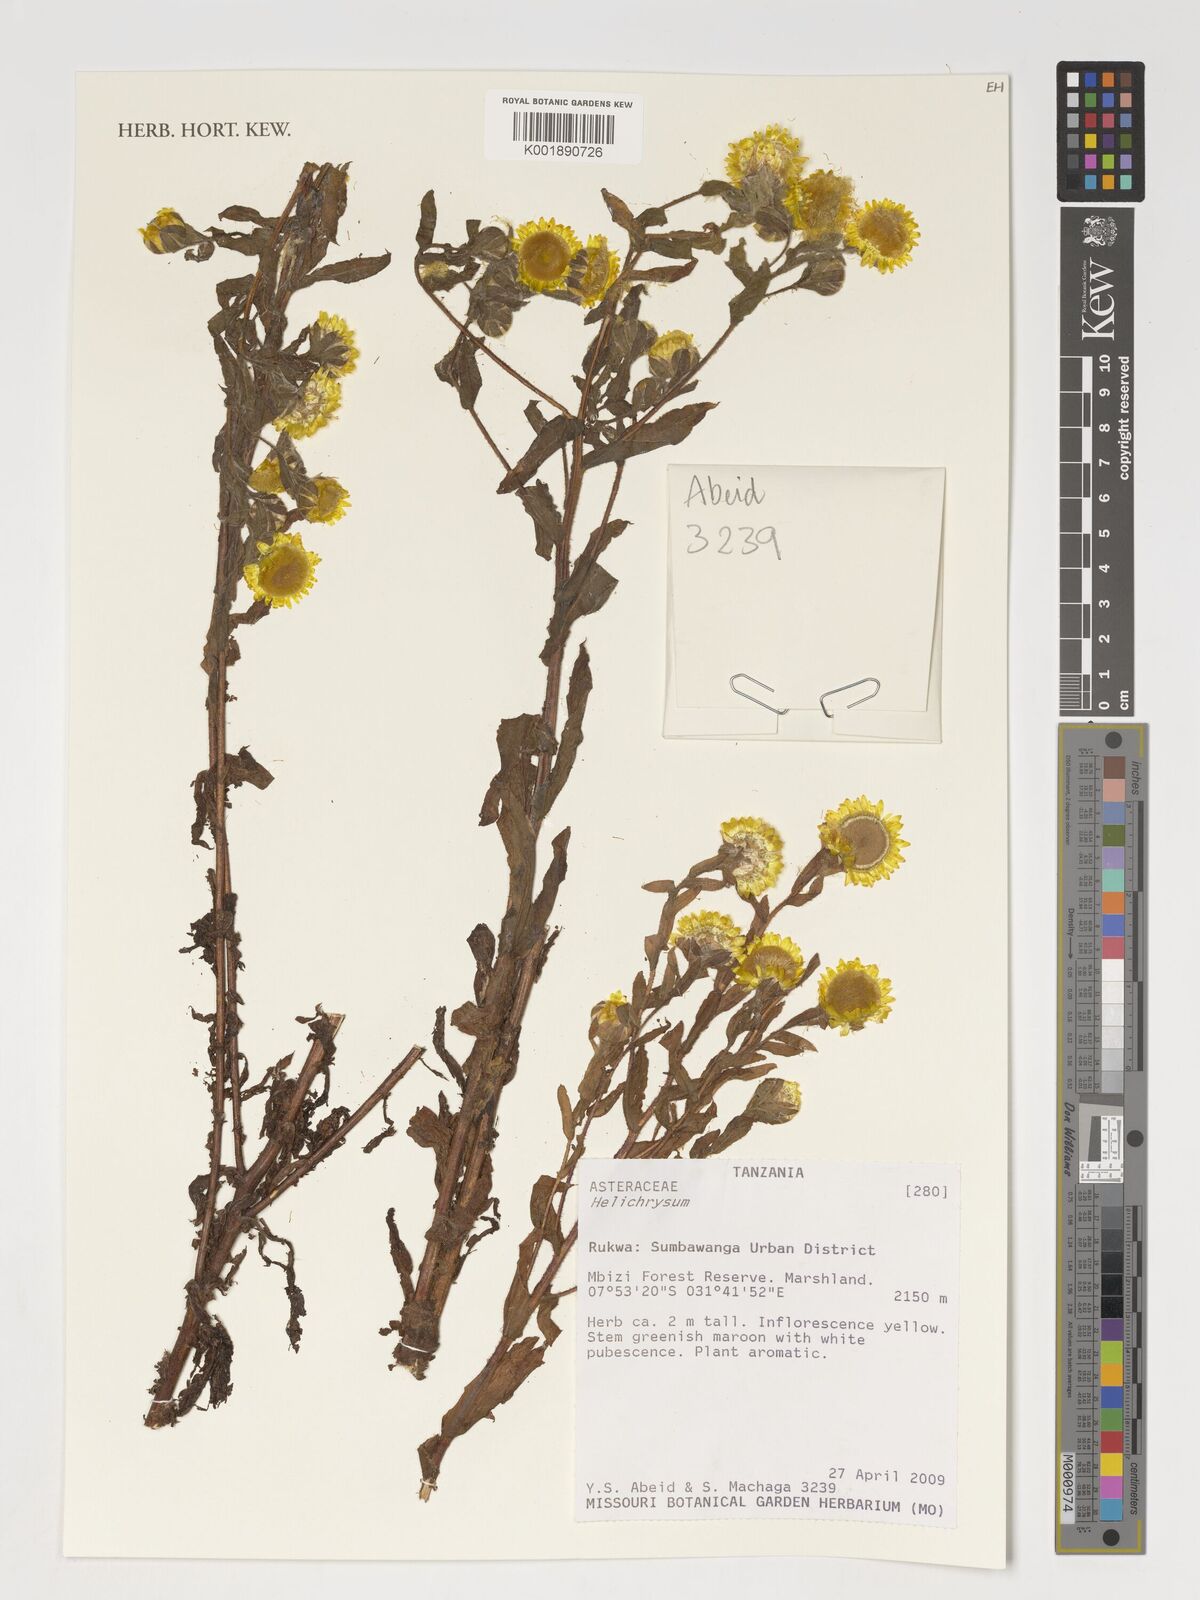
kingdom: Plantae
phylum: Tracheophyta
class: Magnoliopsida
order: Asterales
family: Asteraceae
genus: Helichrysum
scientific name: Helichrysum
